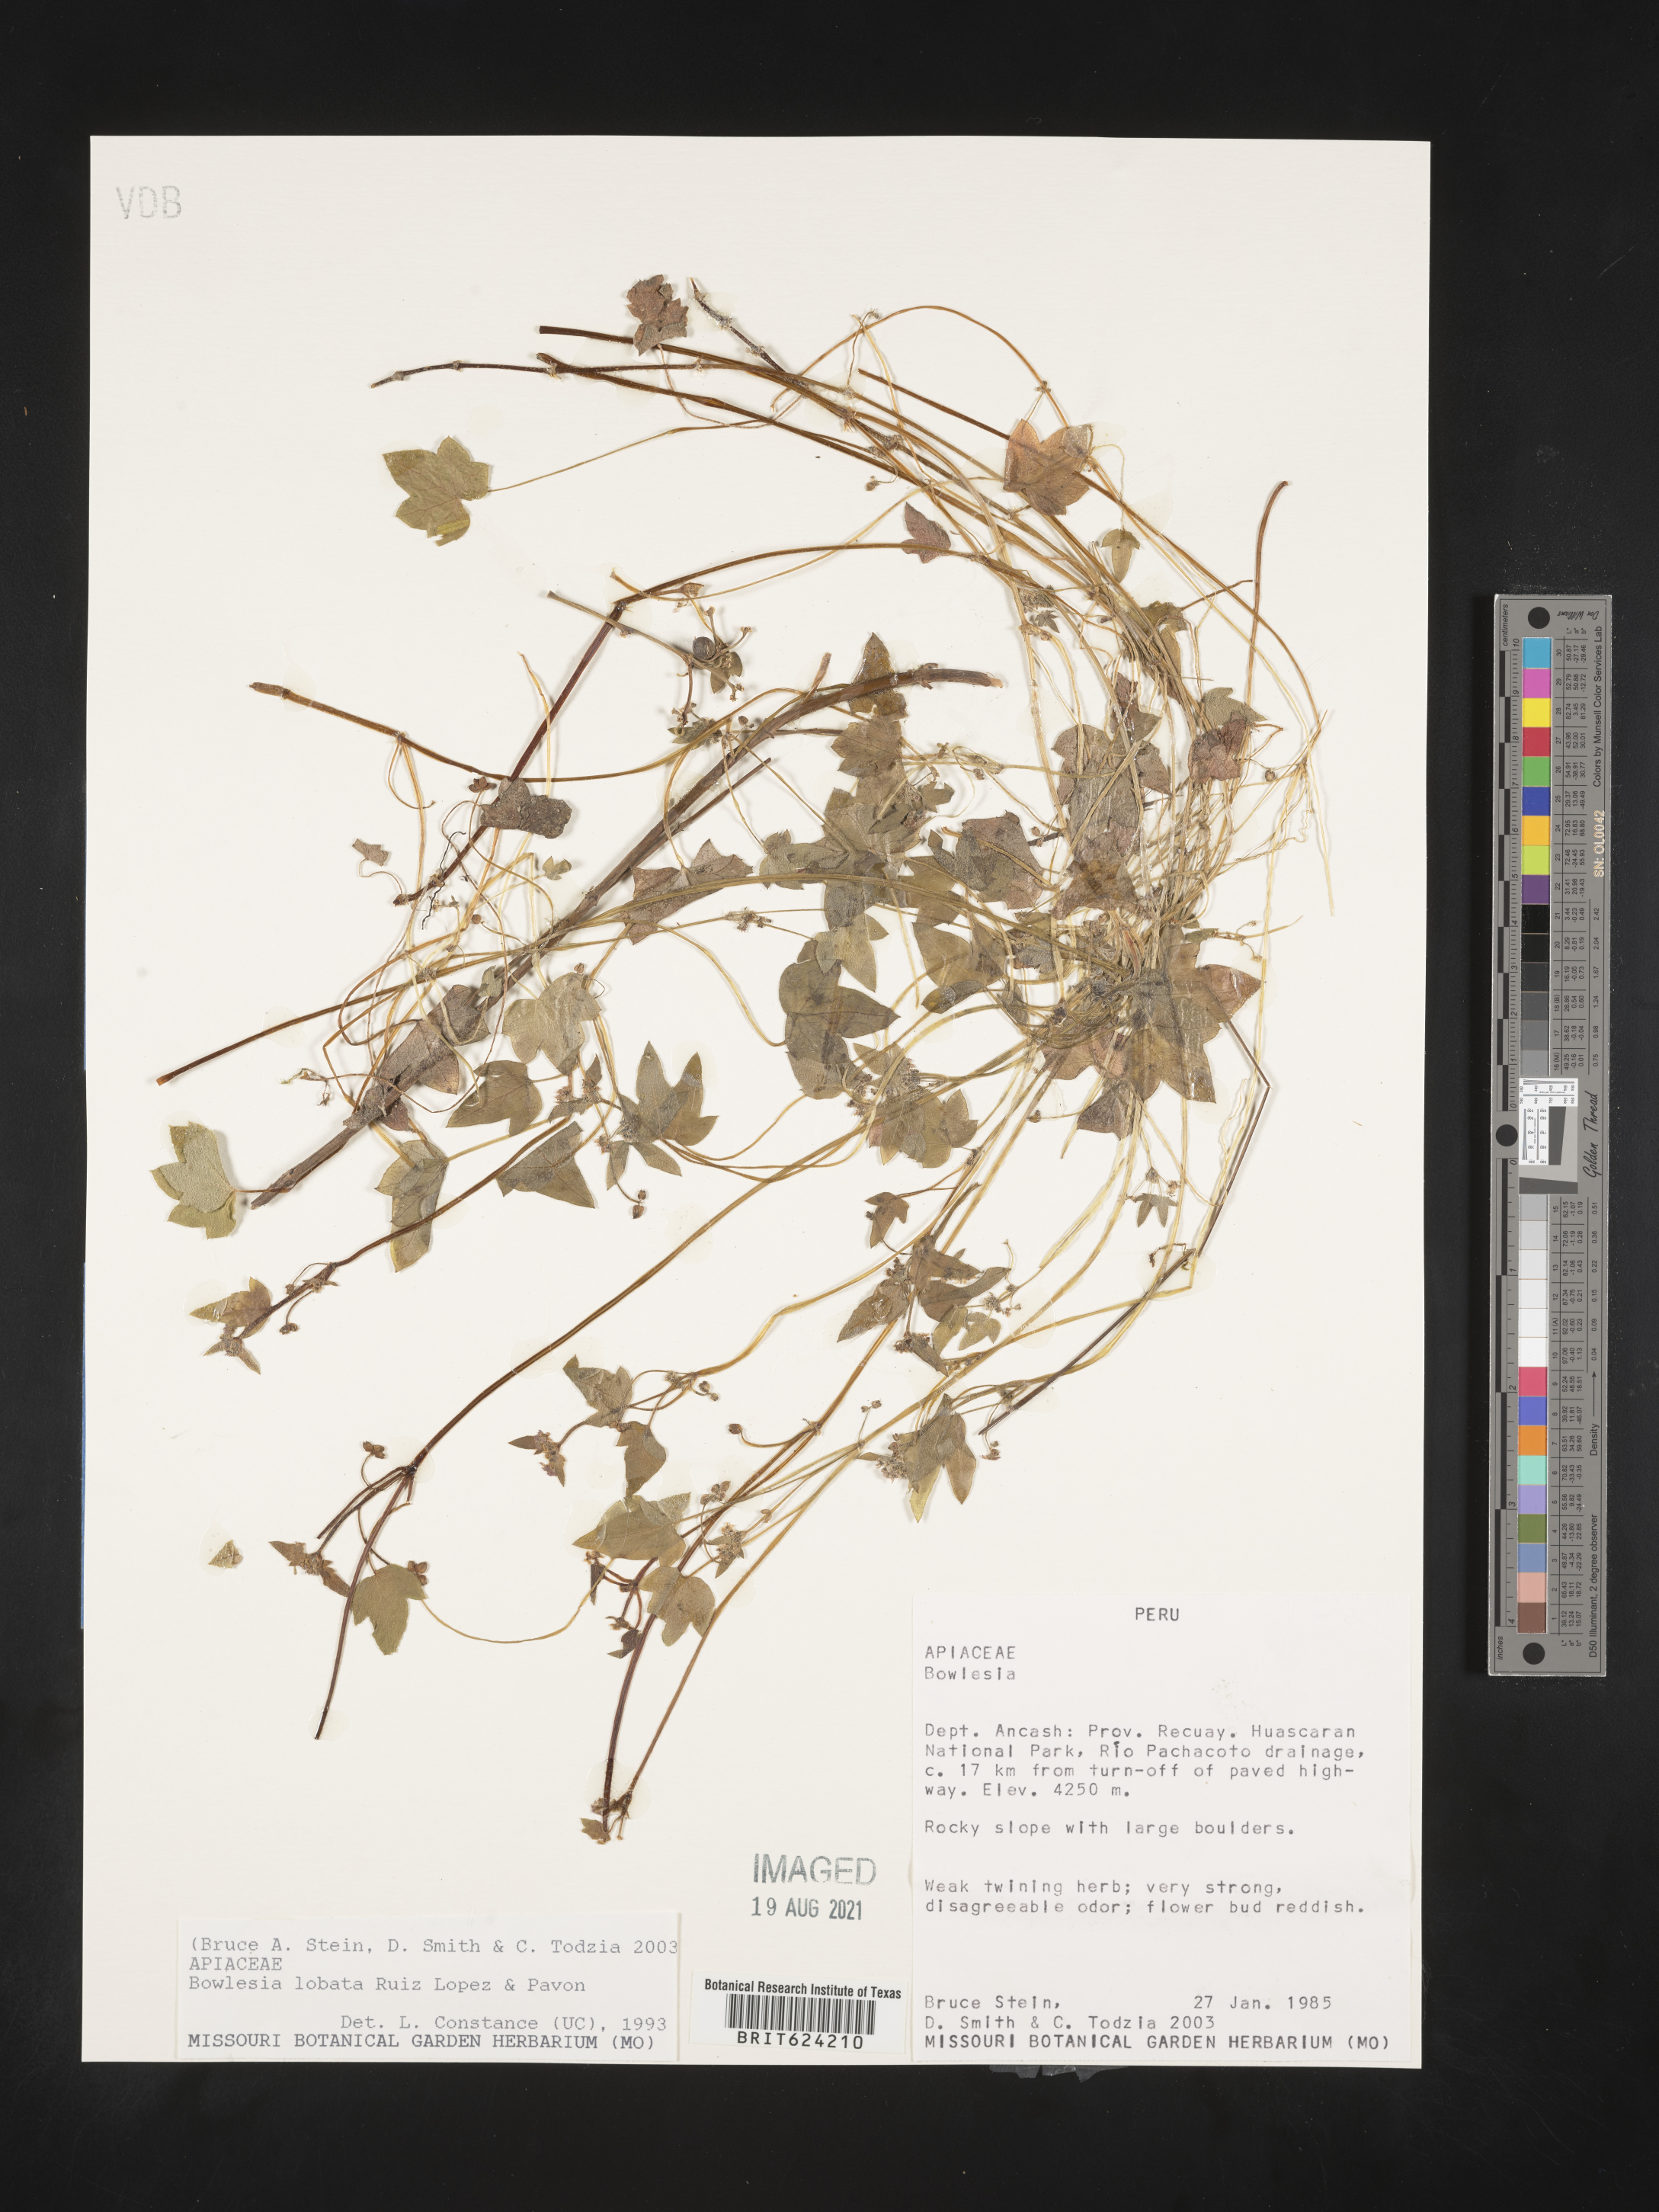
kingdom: Plantae
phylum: Tracheophyta
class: Magnoliopsida
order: Apiales
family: Apiaceae
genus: Bowlesia
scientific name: Bowlesia lobata
